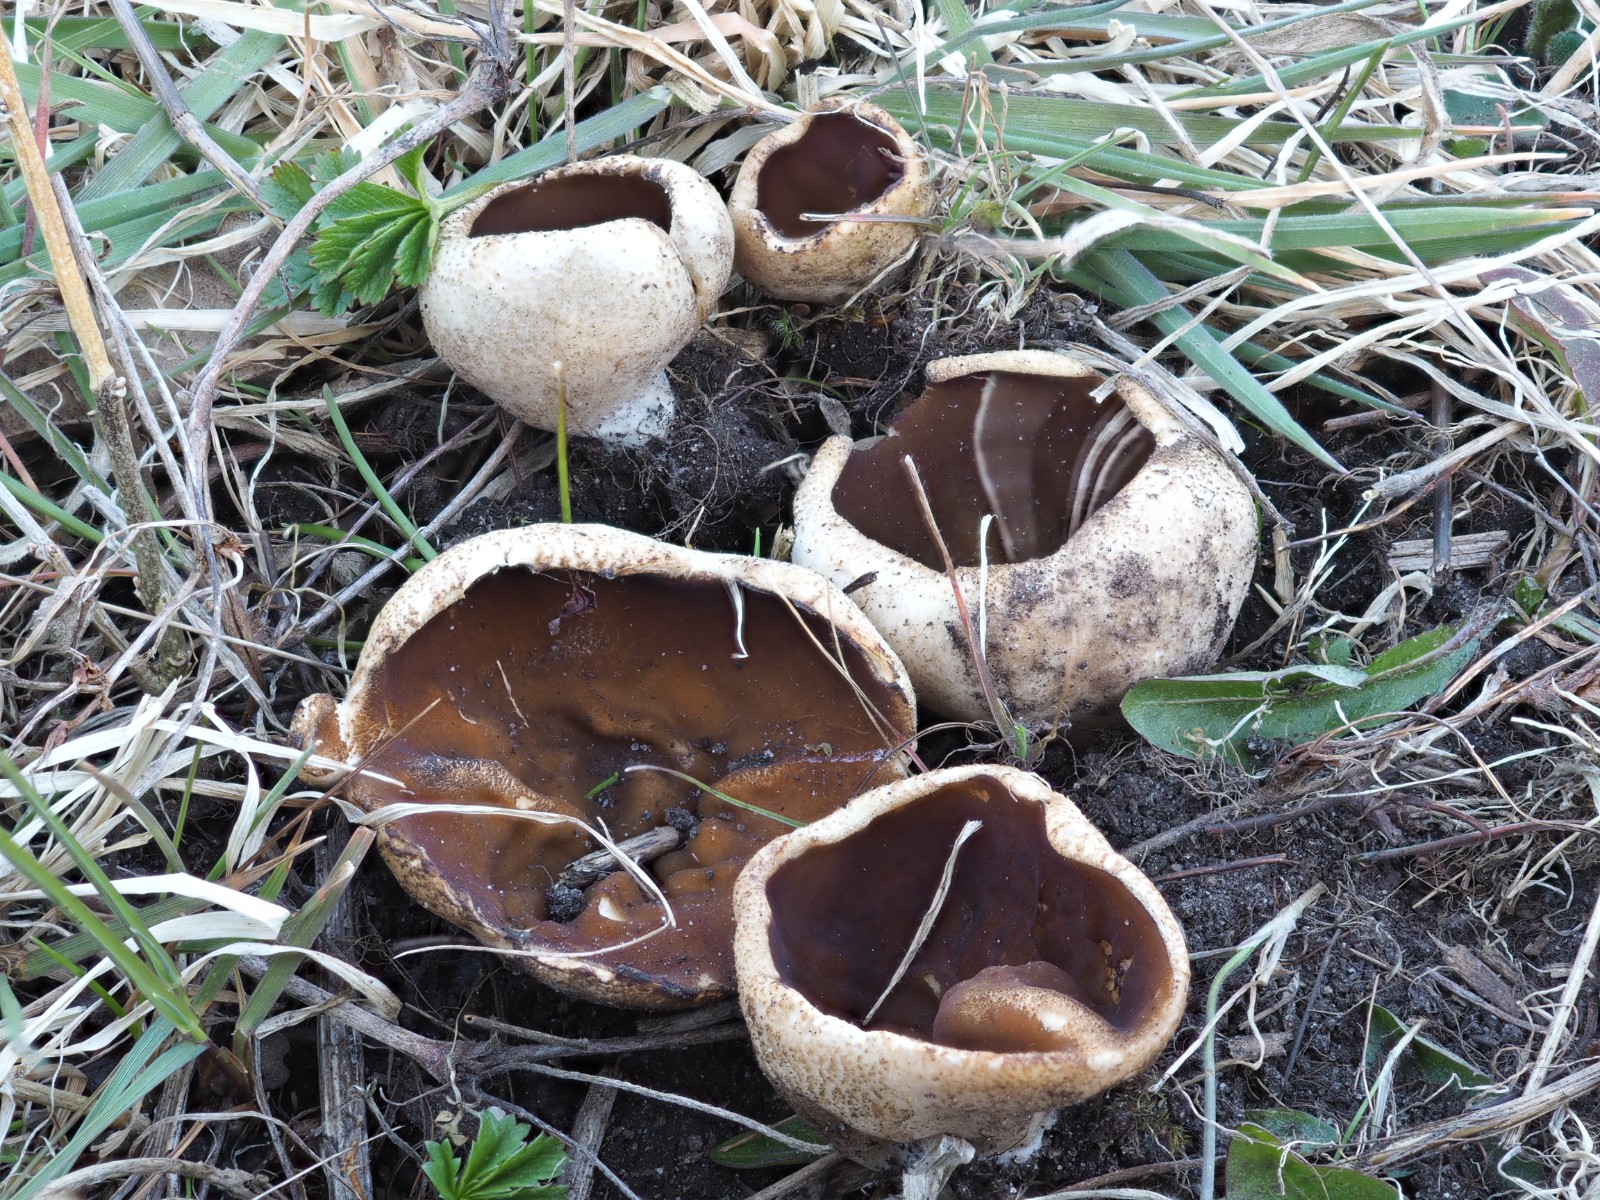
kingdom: Fungi
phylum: Ascomycota
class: Pezizomycetes
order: Pezizales
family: Morchellaceae
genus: Disciotis
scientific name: Disciotis venosa
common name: klor-bægermorkel
